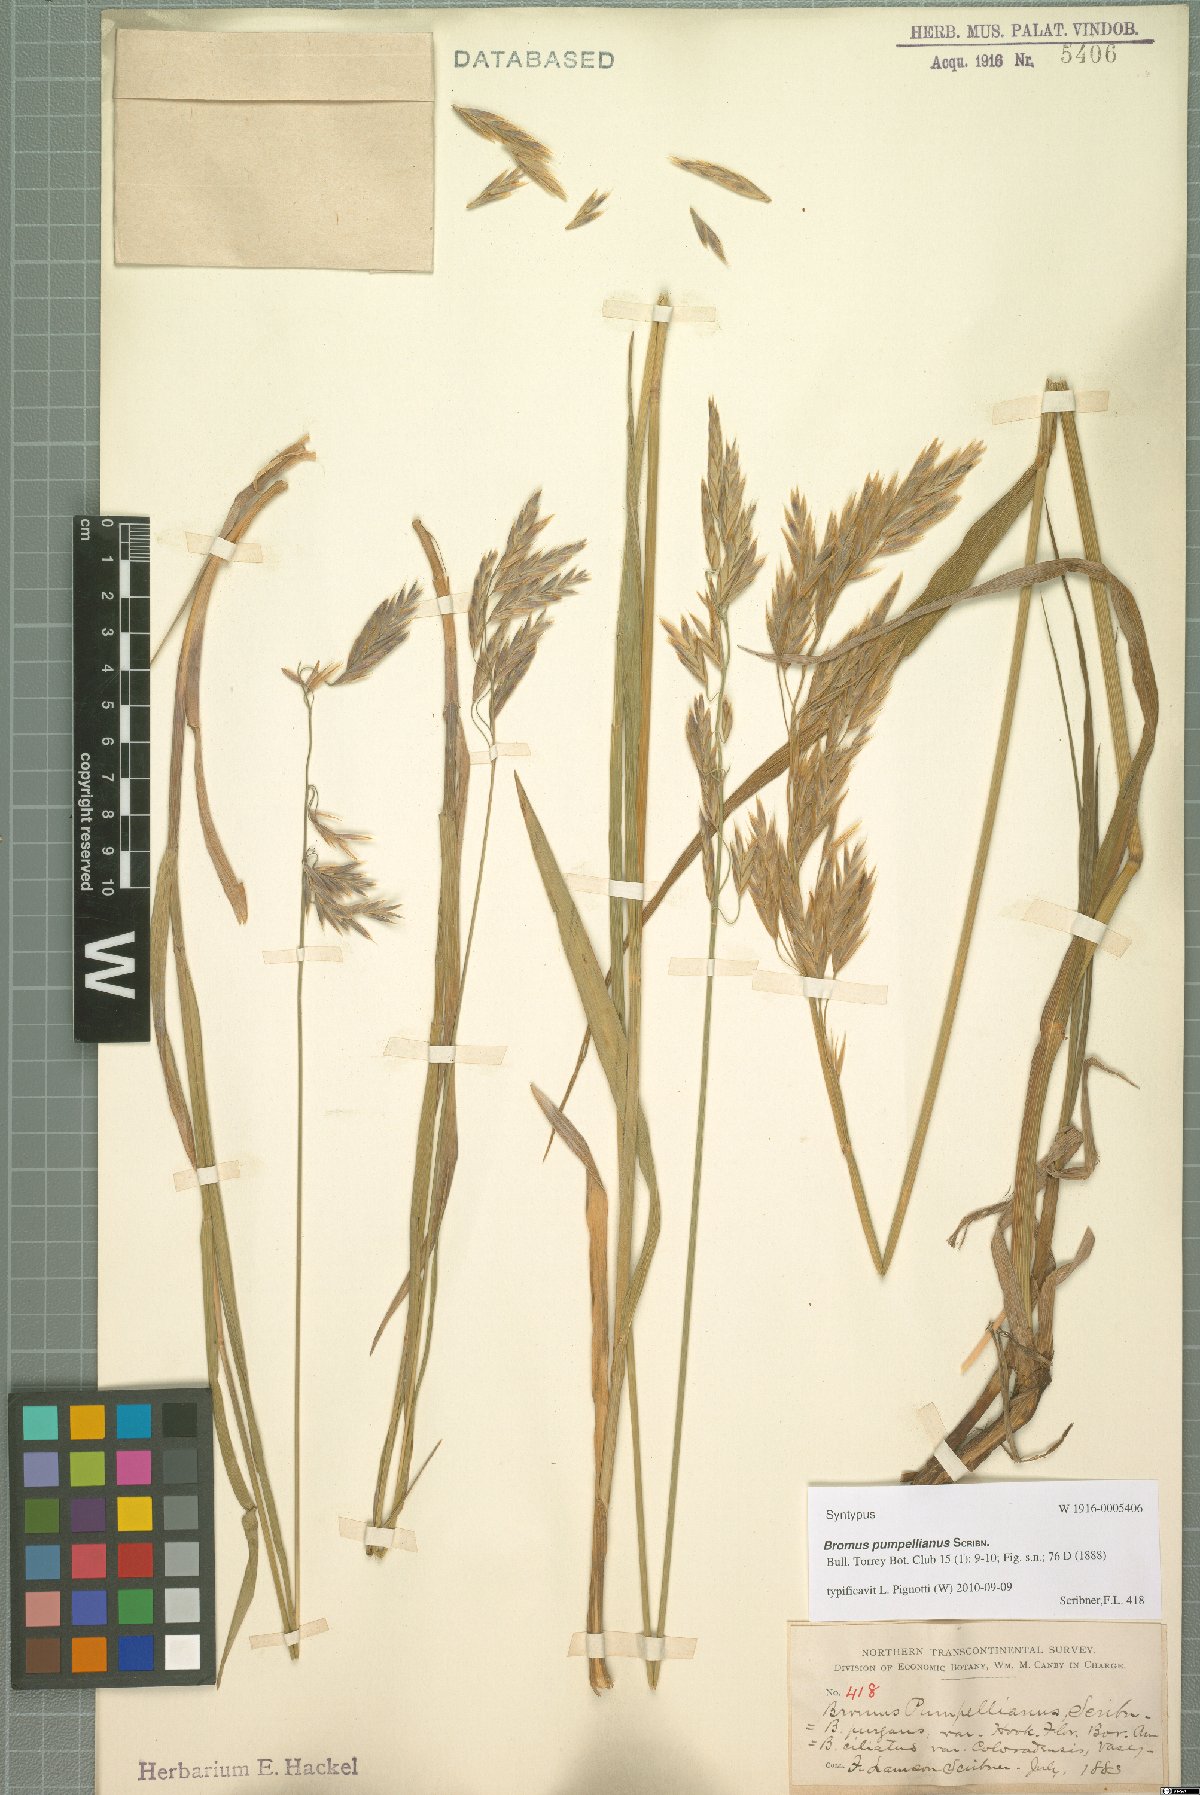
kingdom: Plantae
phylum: Tracheophyta
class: Liliopsida
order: Poales
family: Poaceae
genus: Bromus
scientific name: Bromus pumpellianus
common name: Pumpelly's brome
